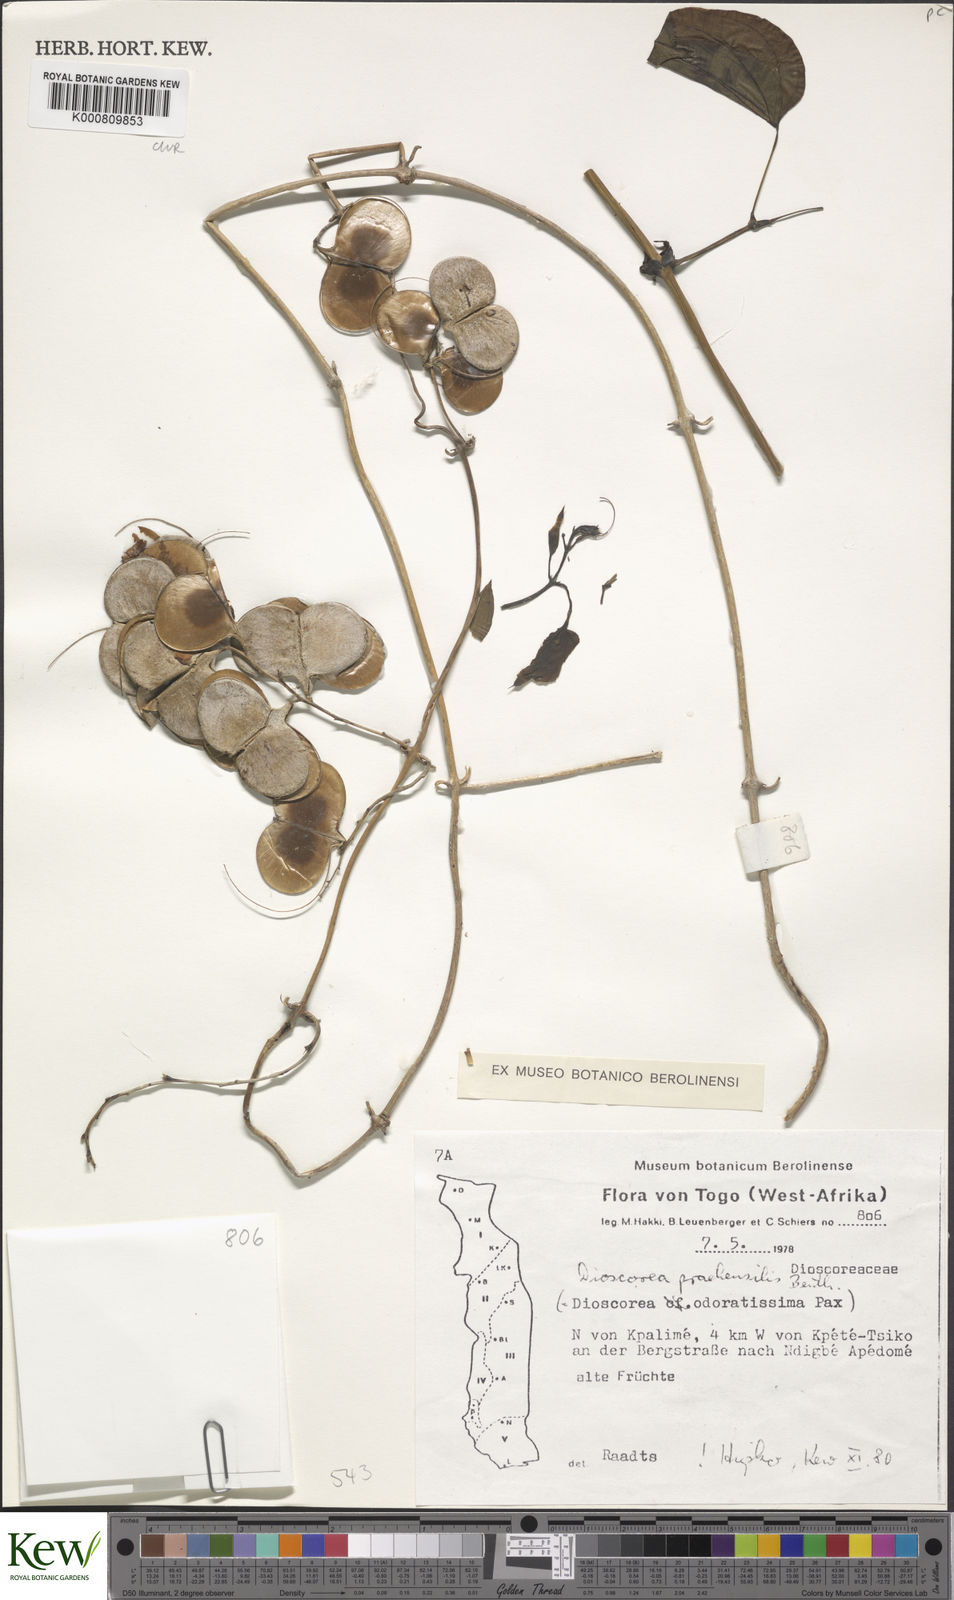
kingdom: Plantae
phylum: Tracheophyta
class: Liliopsida
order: Dioscoreales
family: Dioscoreaceae
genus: Dioscorea
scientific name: Dioscorea praehensilis
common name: Bush yam
